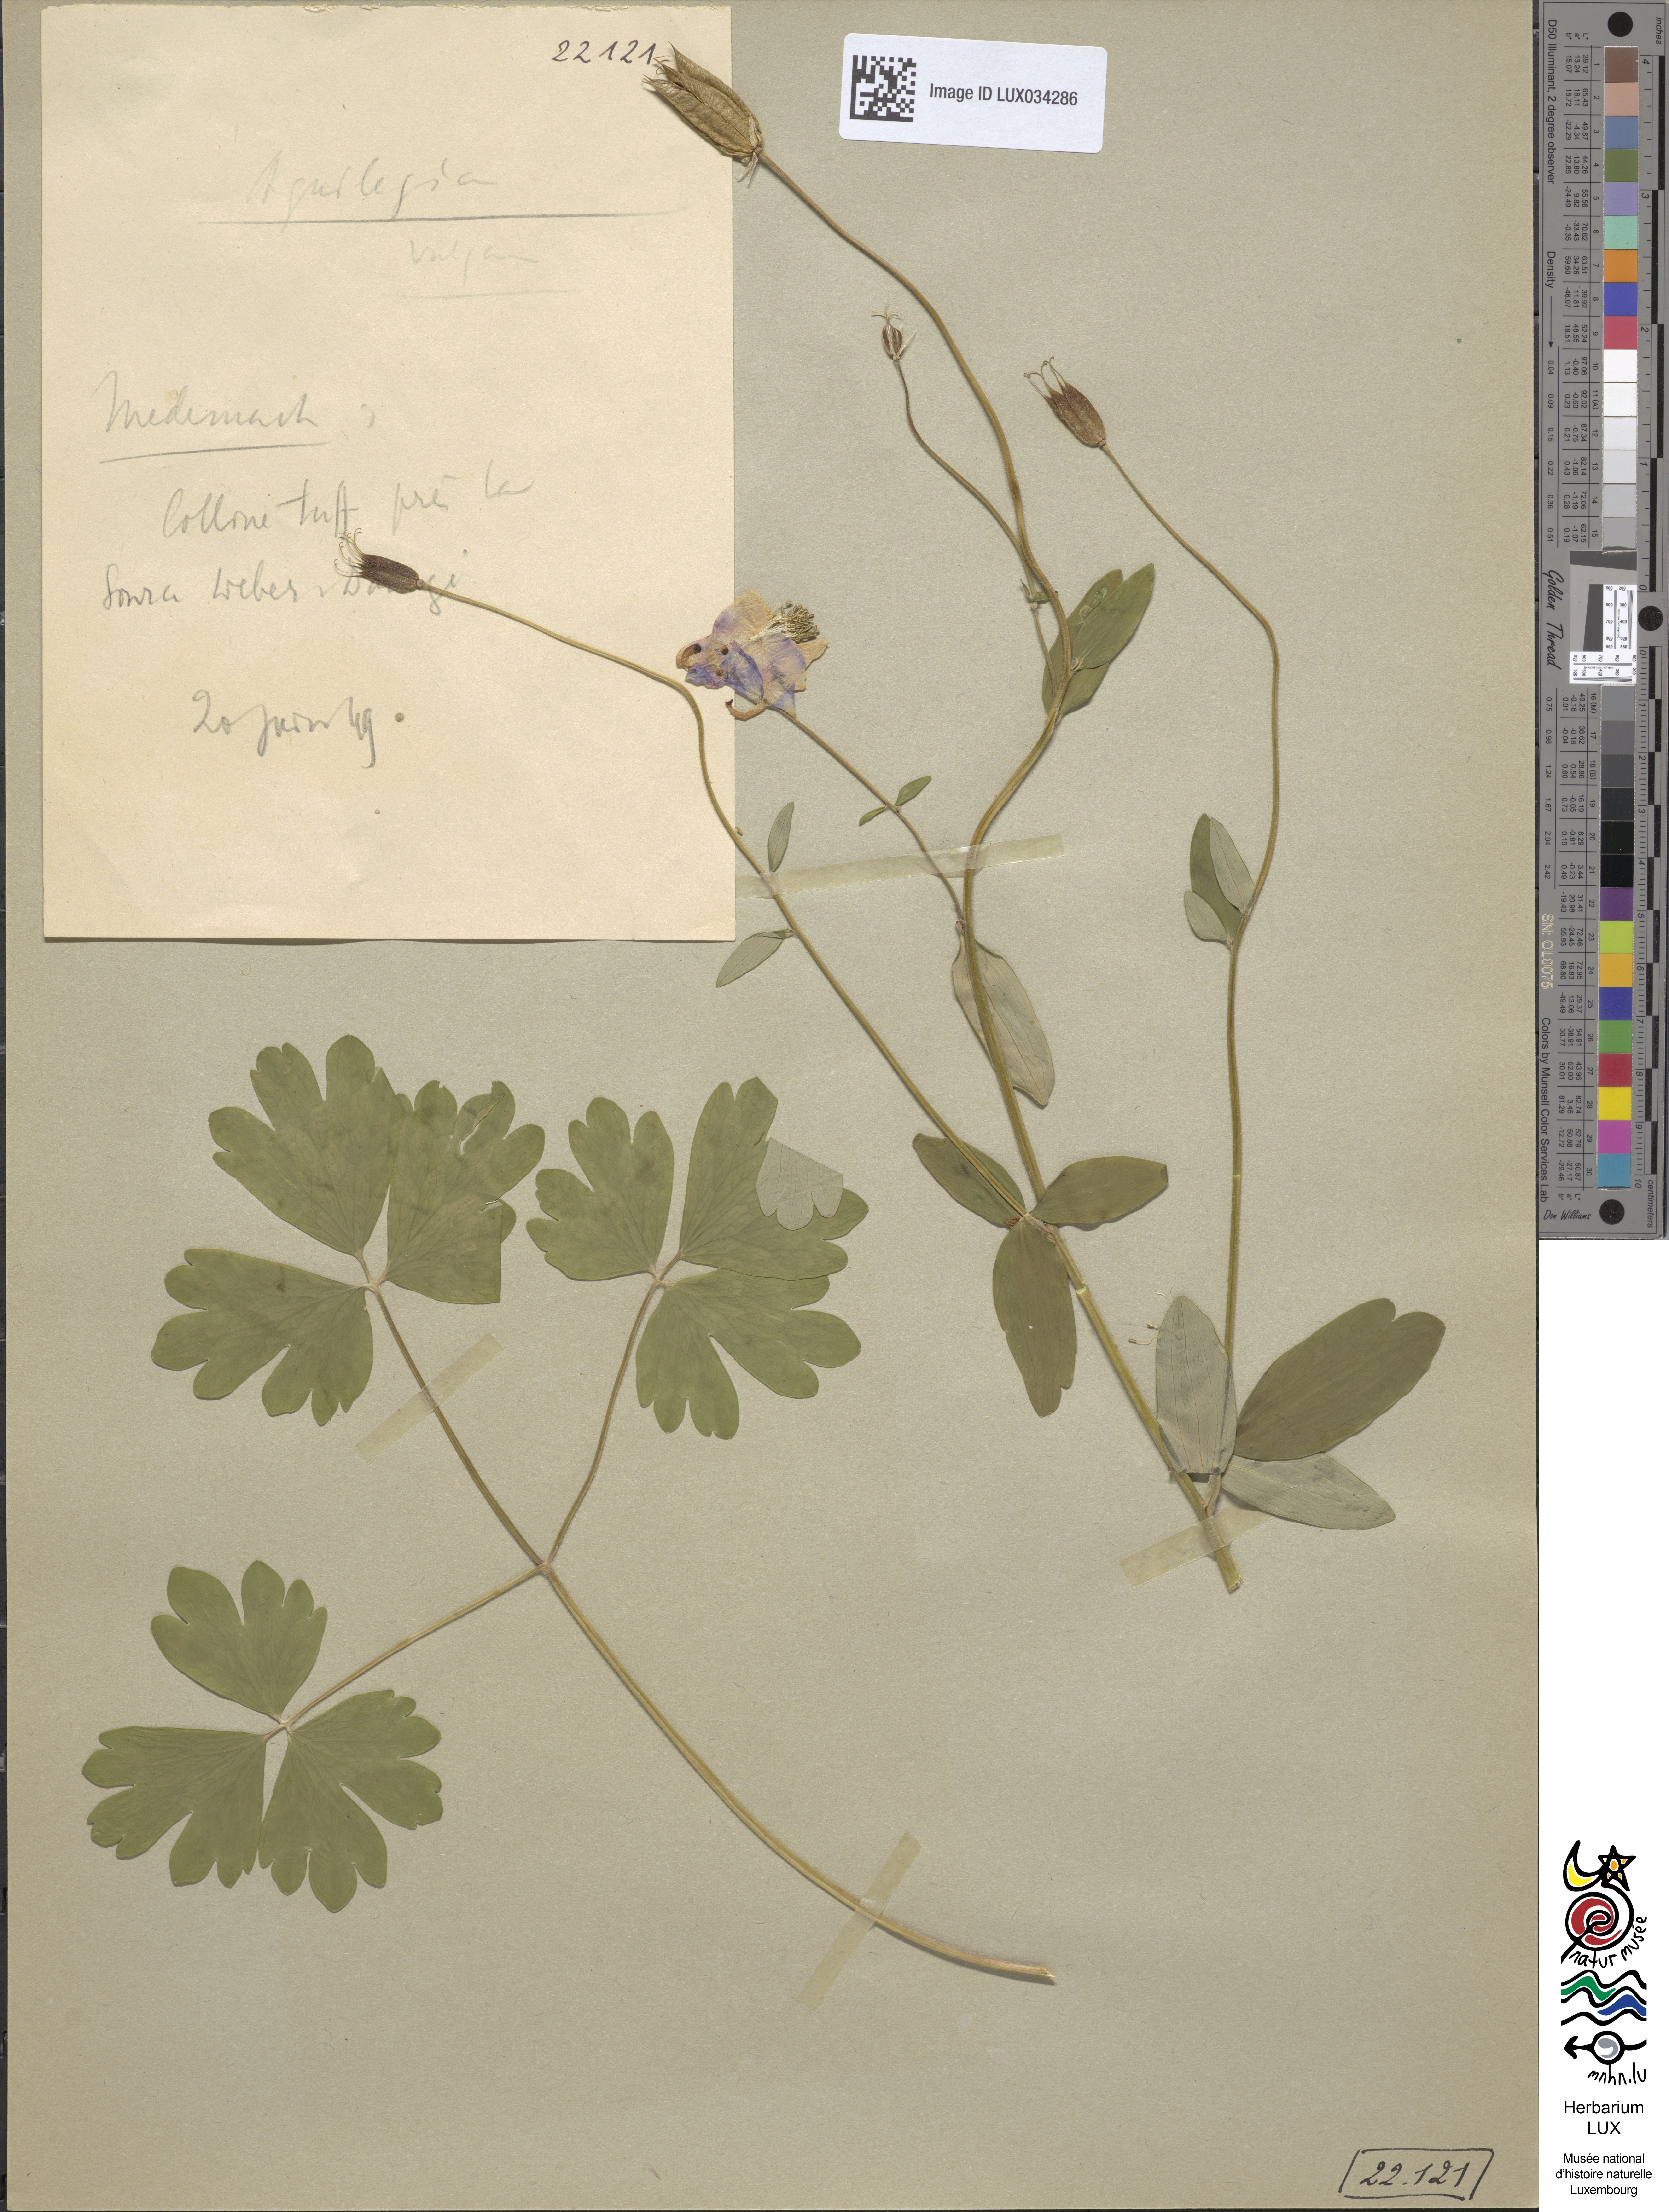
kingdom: Plantae
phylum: Tracheophyta
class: Magnoliopsida
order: Ranunculales
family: Ranunculaceae
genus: Aquilegia
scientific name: Aquilegia vulgaris
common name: Columbine
